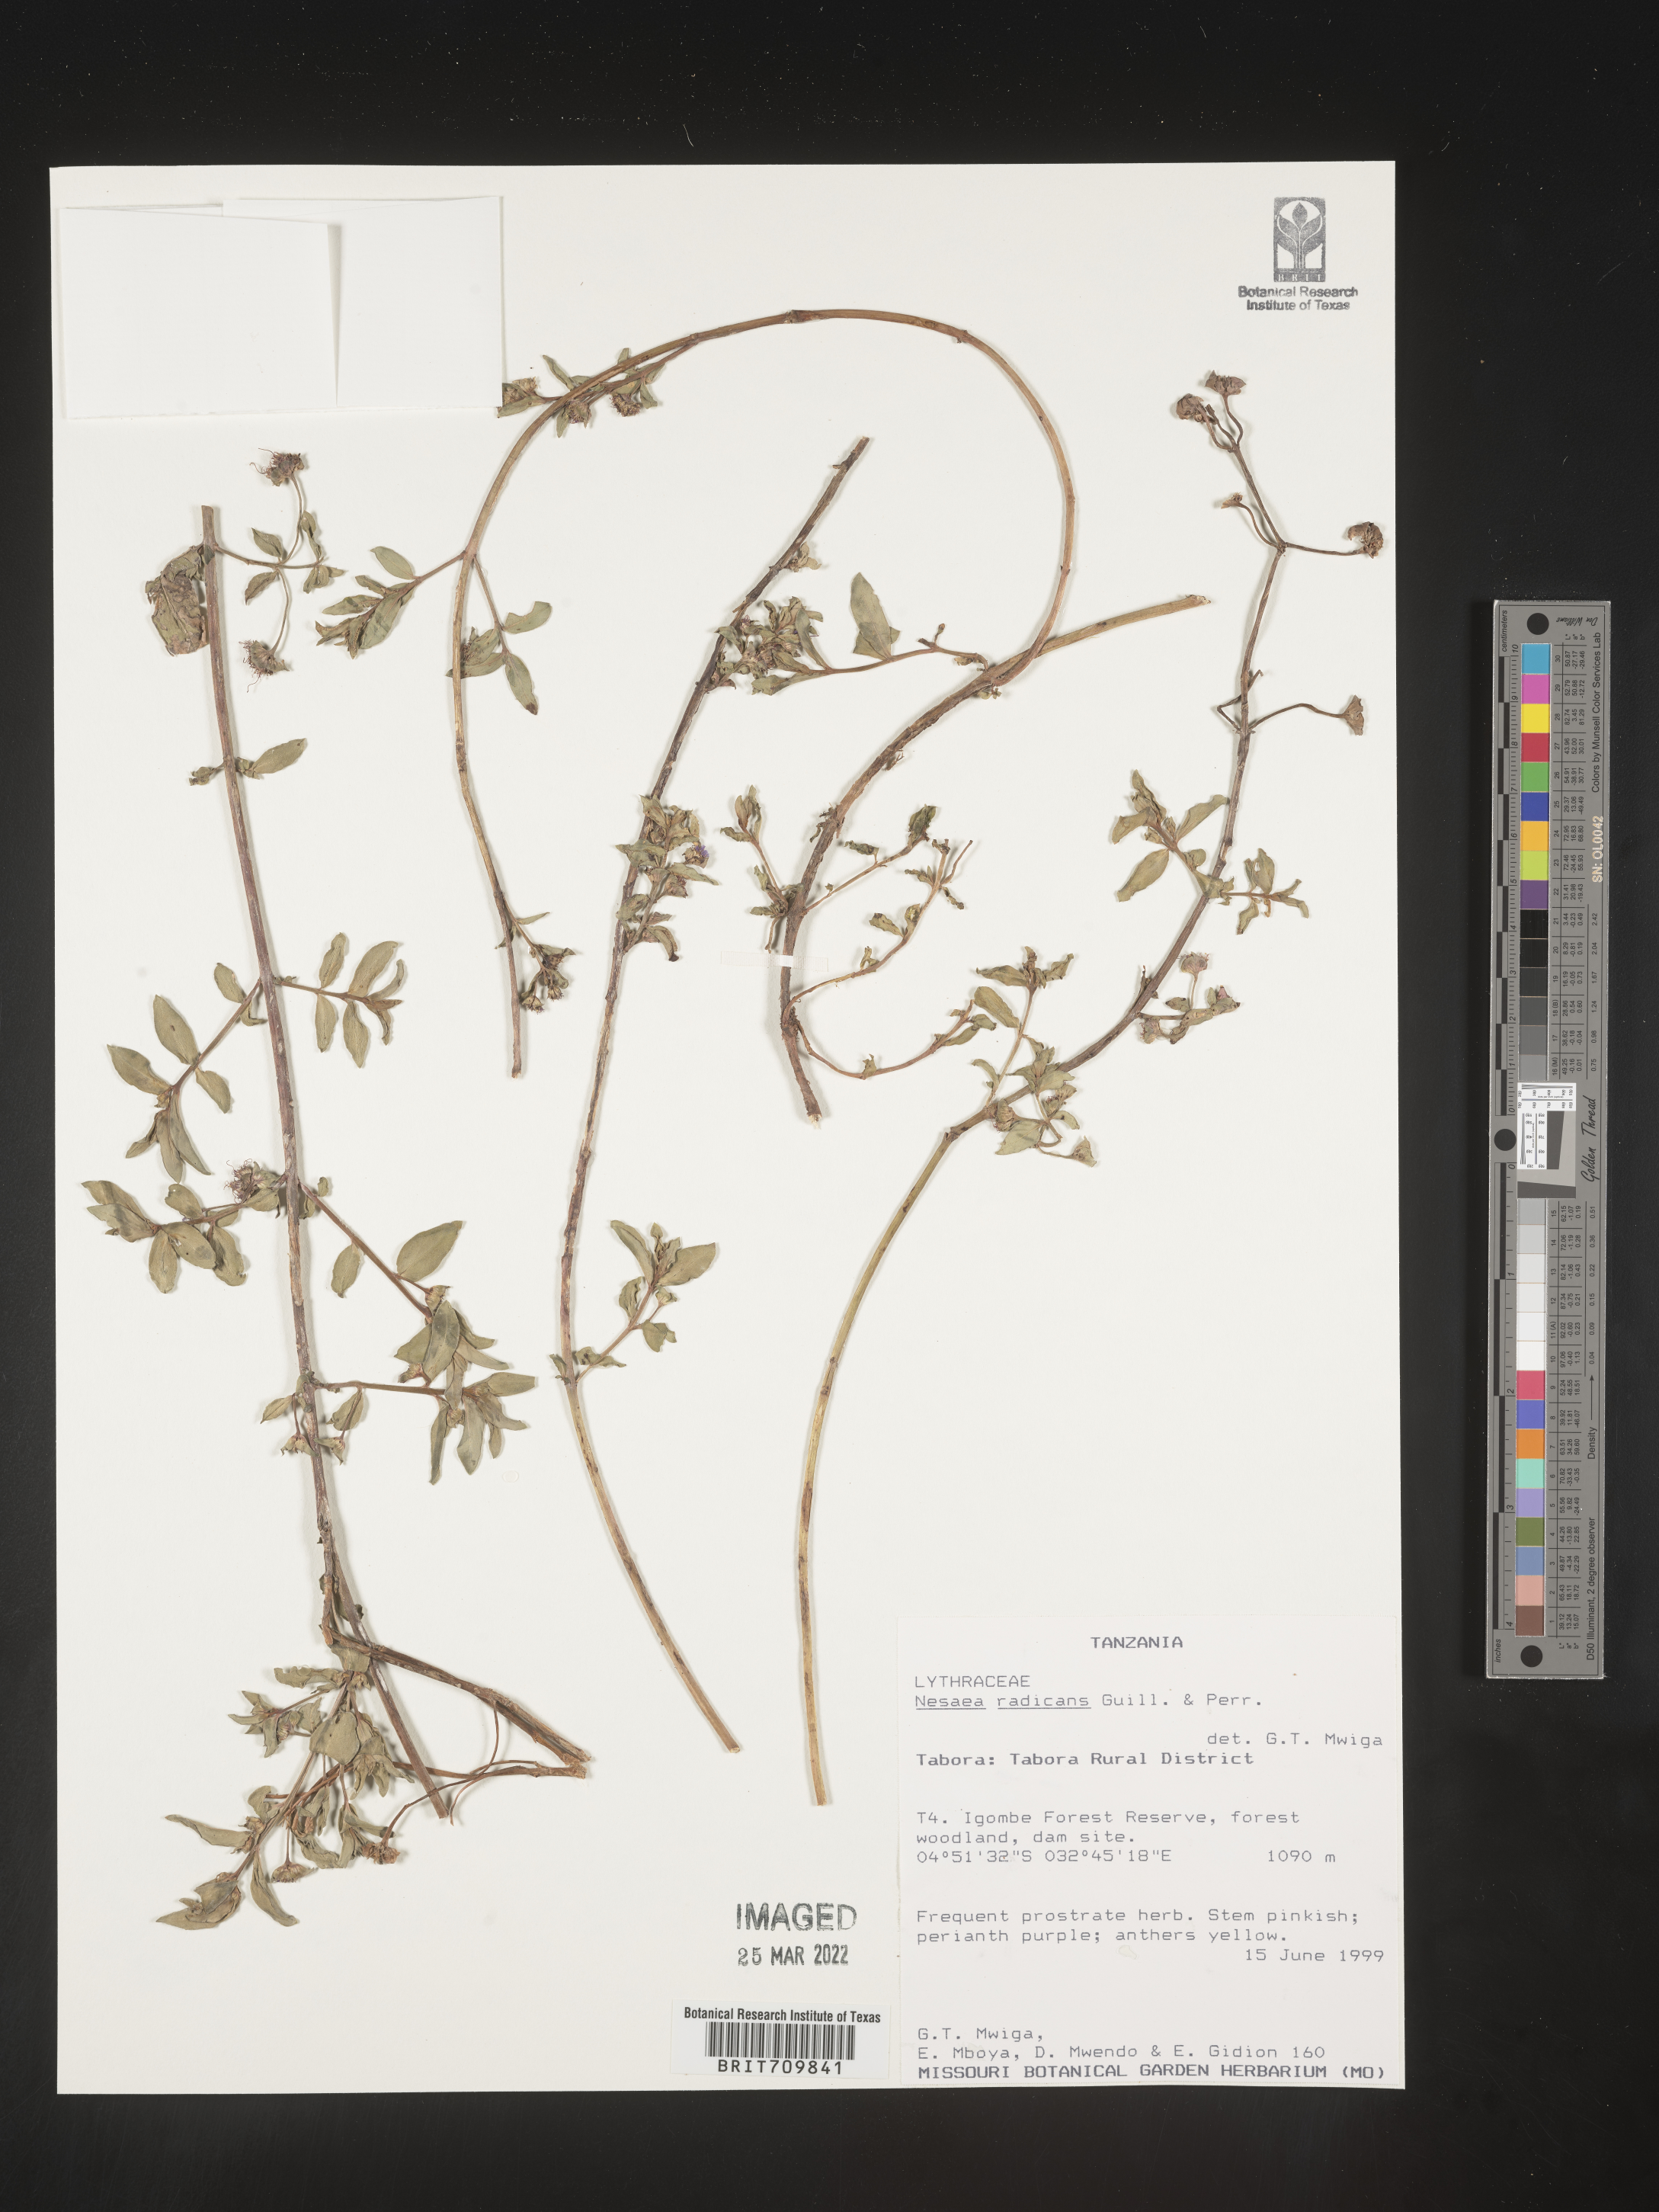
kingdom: Plantae
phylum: Tracheophyta
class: Magnoliopsida
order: Myrtales
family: Lythraceae
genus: Nesaea
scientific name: Nesaea
